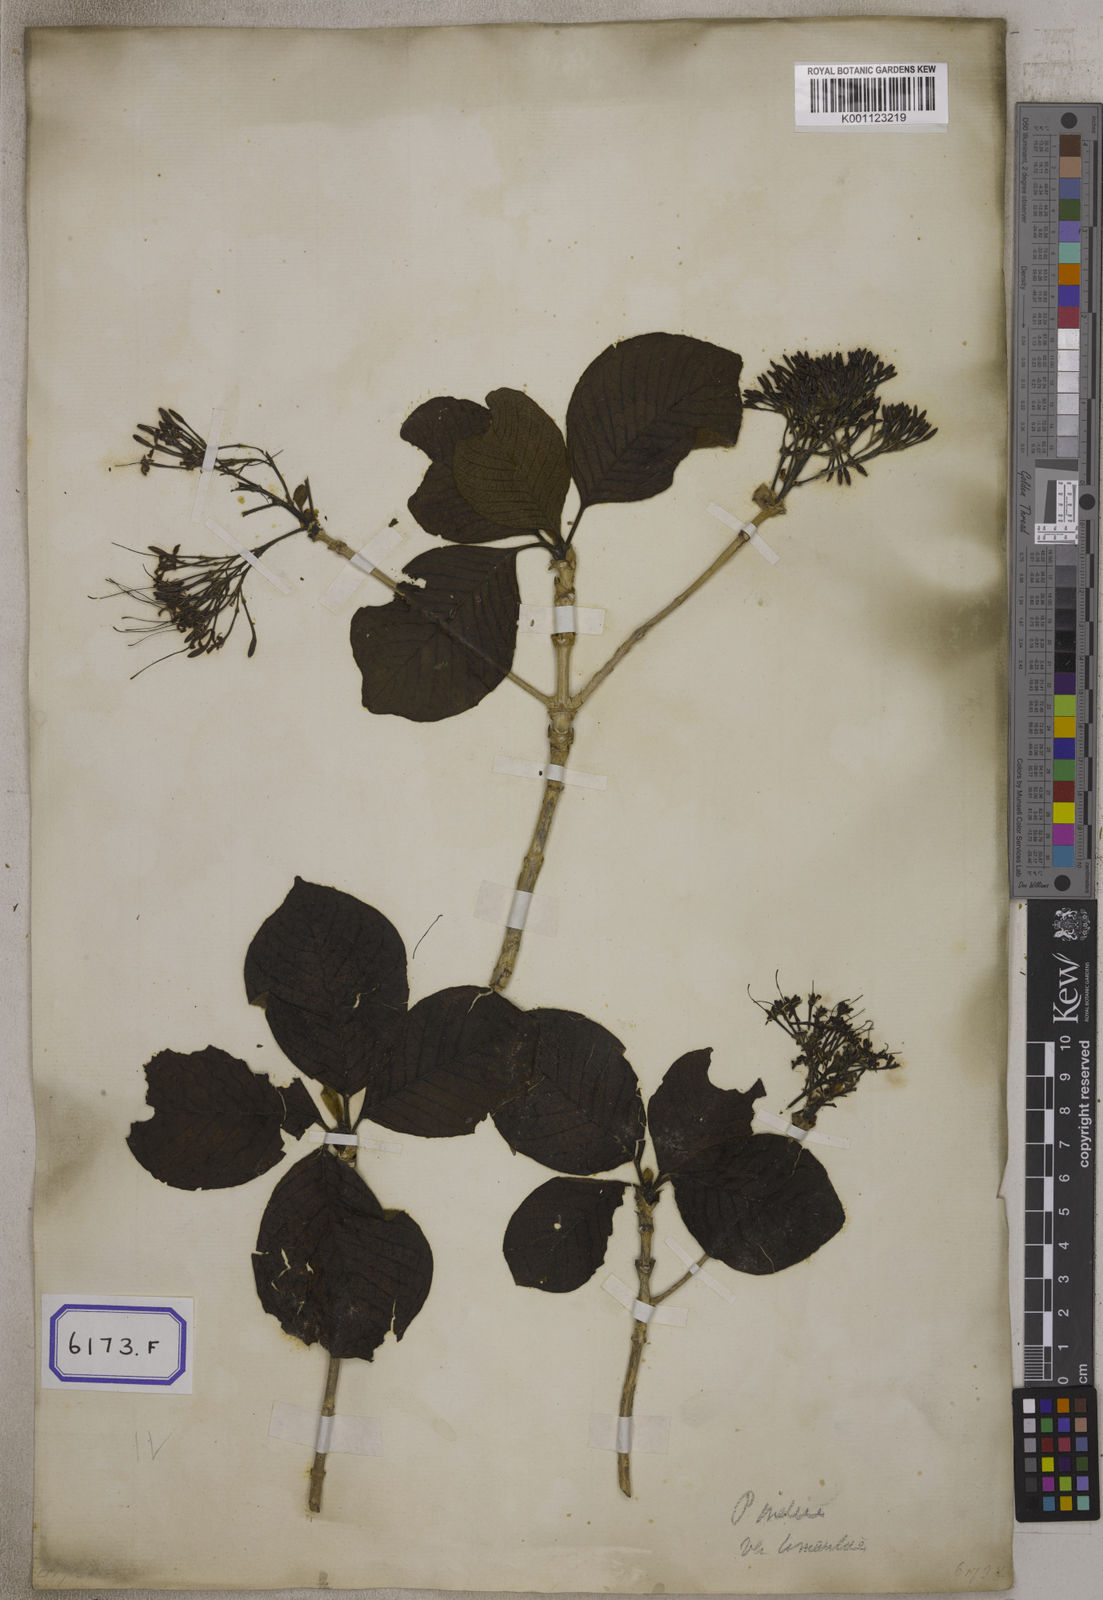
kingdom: Plantae
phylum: Tracheophyta
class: Magnoliopsida
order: Gentianales
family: Rubiaceae
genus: Pavetta
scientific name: Pavetta tomentosa
